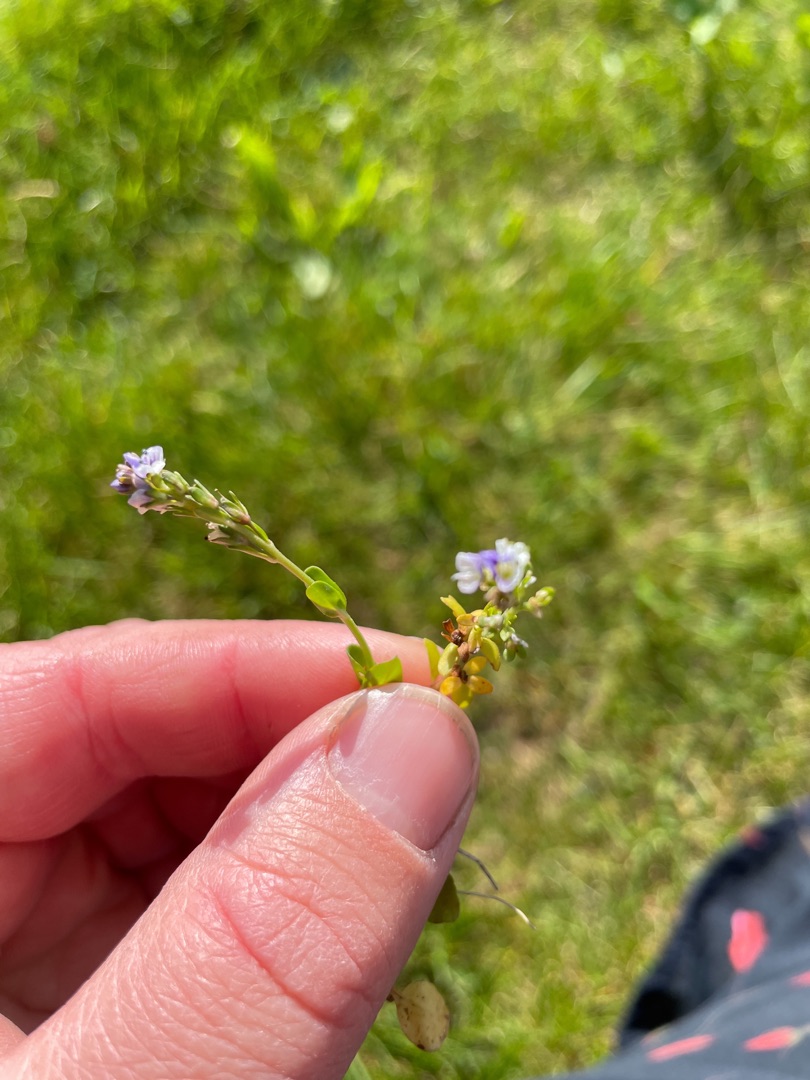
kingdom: Plantae
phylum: Tracheophyta
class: Magnoliopsida
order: Lamiales
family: Plantaginaceae
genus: Veronica
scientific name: Veronica serpyllifolia
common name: Glat ærenpris
